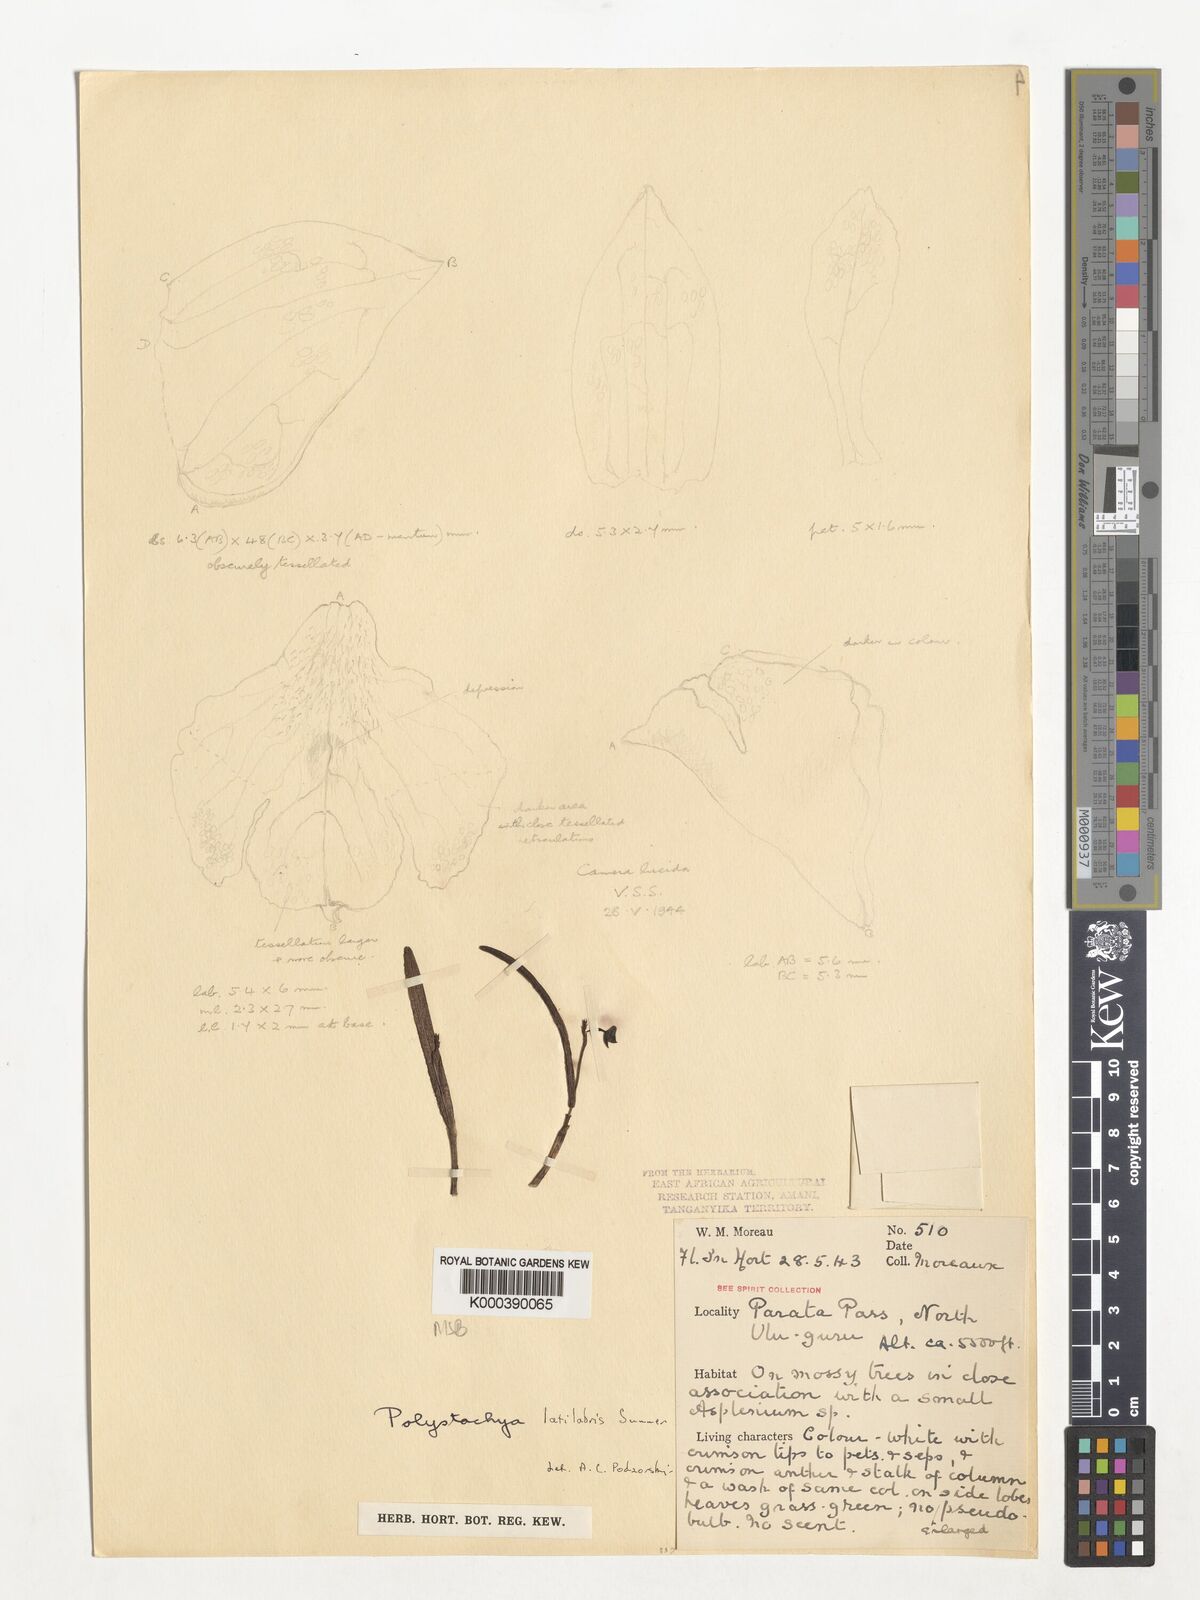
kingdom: Plantae
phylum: Tracheophyta
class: Liliopsida
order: Asparagales
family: Orchidaceae
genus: Polystachya
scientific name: Polystachya caespitifica
